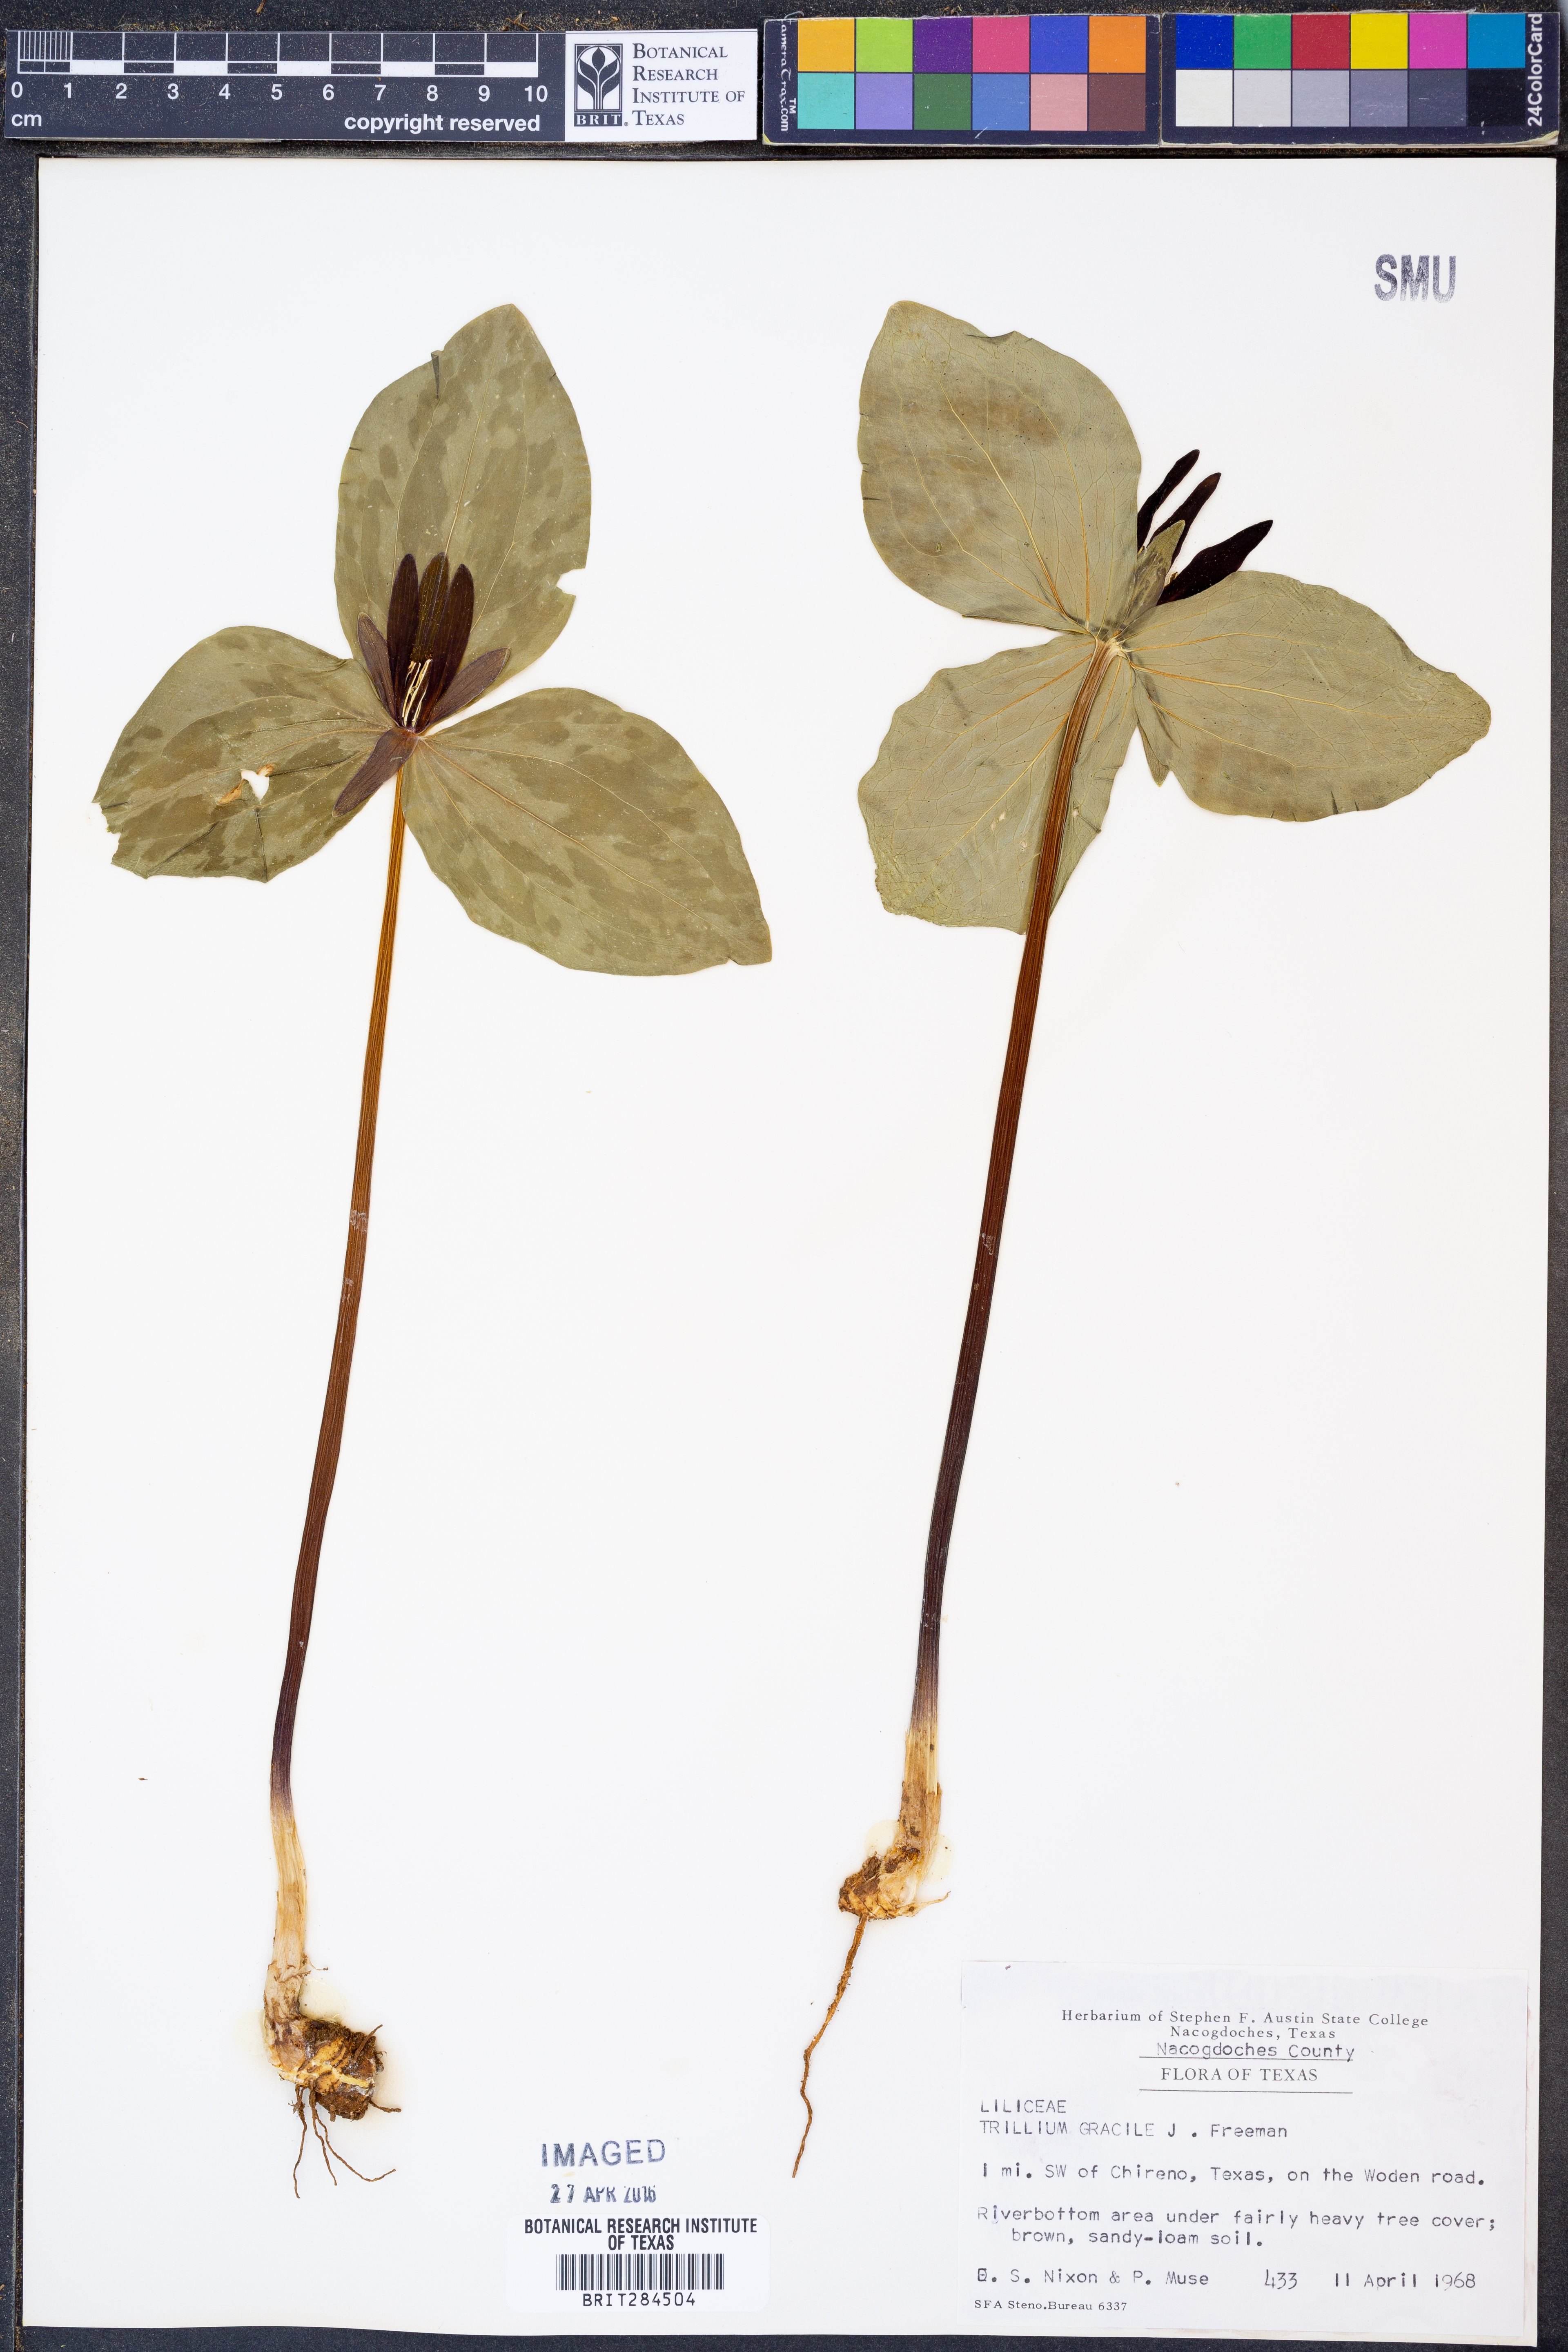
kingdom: Plantae
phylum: Tracheophyta
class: Liliopsida
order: Liliales
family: Melanthiaceae
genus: Trillium
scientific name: Trillium gracile
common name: Graceful trillium
